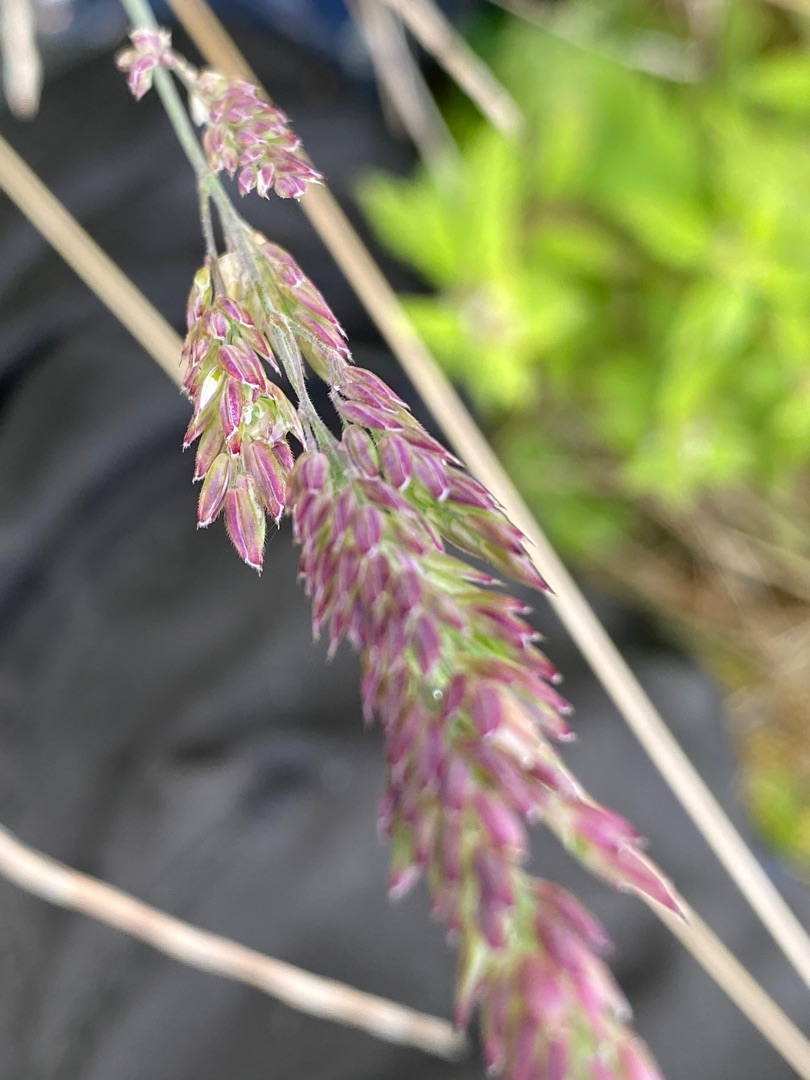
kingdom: Plantae
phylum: Tracheophyta
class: Liliopsida
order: Poales
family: Poaceae
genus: Holcus
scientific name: Holcus lanatus
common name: Fløjlsgræs
